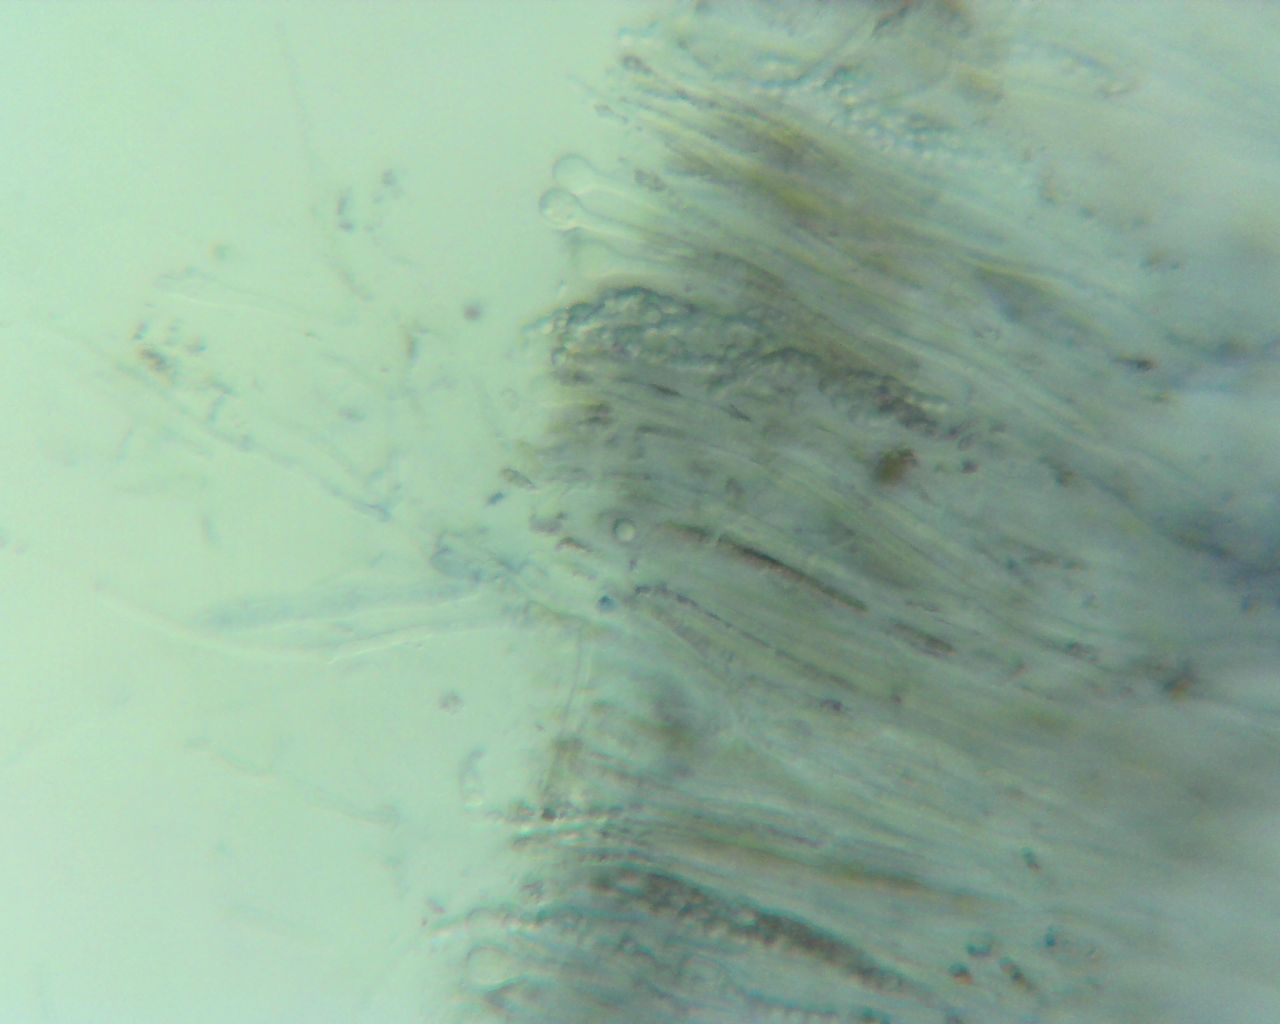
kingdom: Fungi
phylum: Ascomycota
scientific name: Ascomycota
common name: sæksvampe
